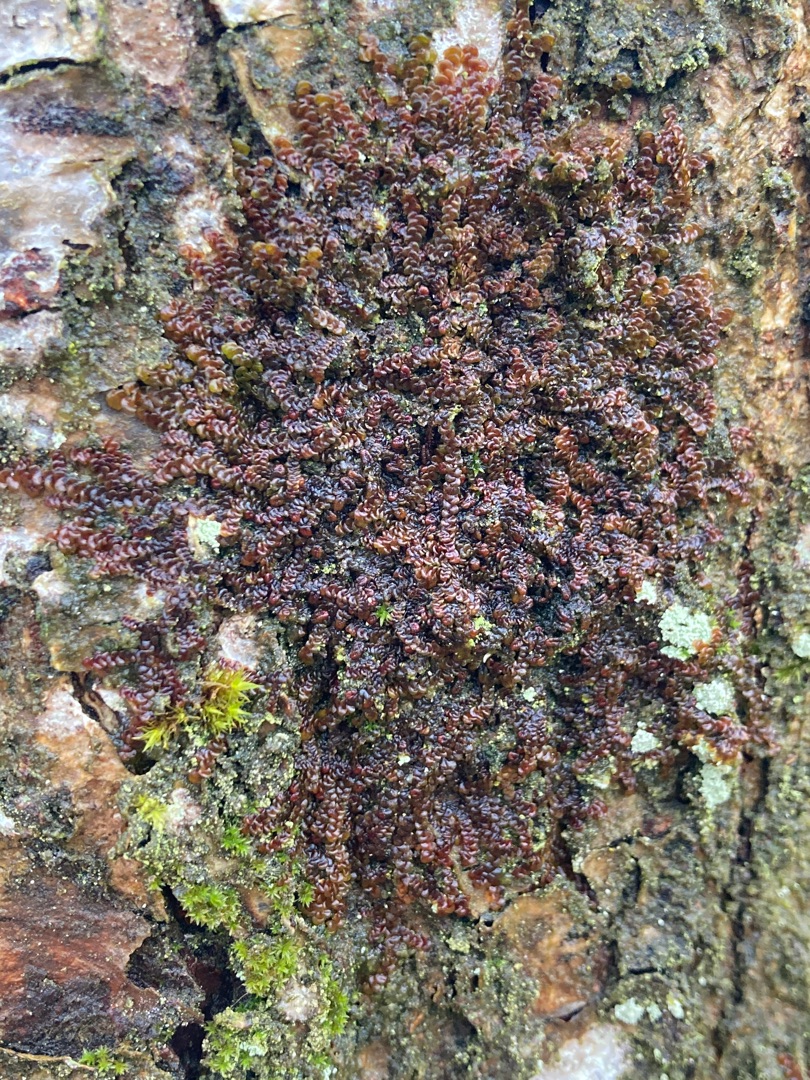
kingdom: Plantae
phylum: Marchantiophyta
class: Jungermanniopsida
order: Porellales
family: Frullaniaceae
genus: Frullania
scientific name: Frullania dilatata
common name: Mat bronzemos
